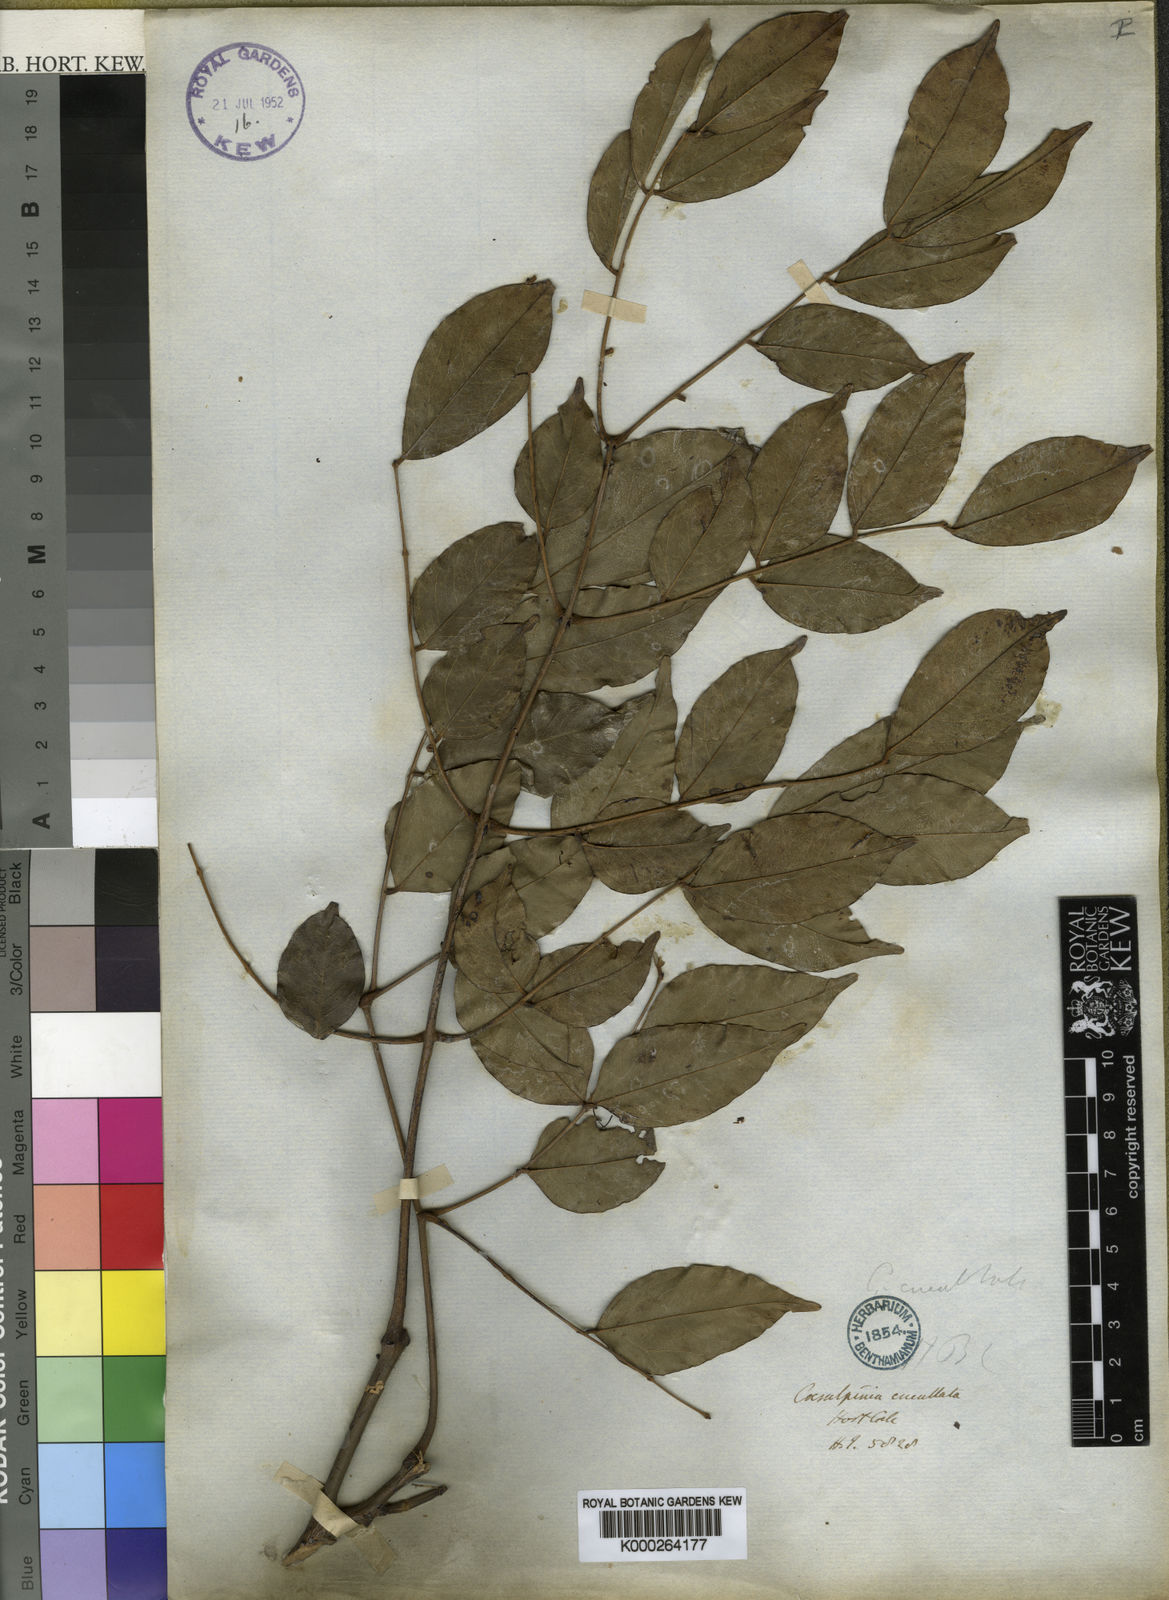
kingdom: Plantae
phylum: Tracheophyta
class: Magnoliopsida
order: Fabales
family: Fabaceae
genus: Mezoneuron
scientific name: Mezoneuron cucullatum
